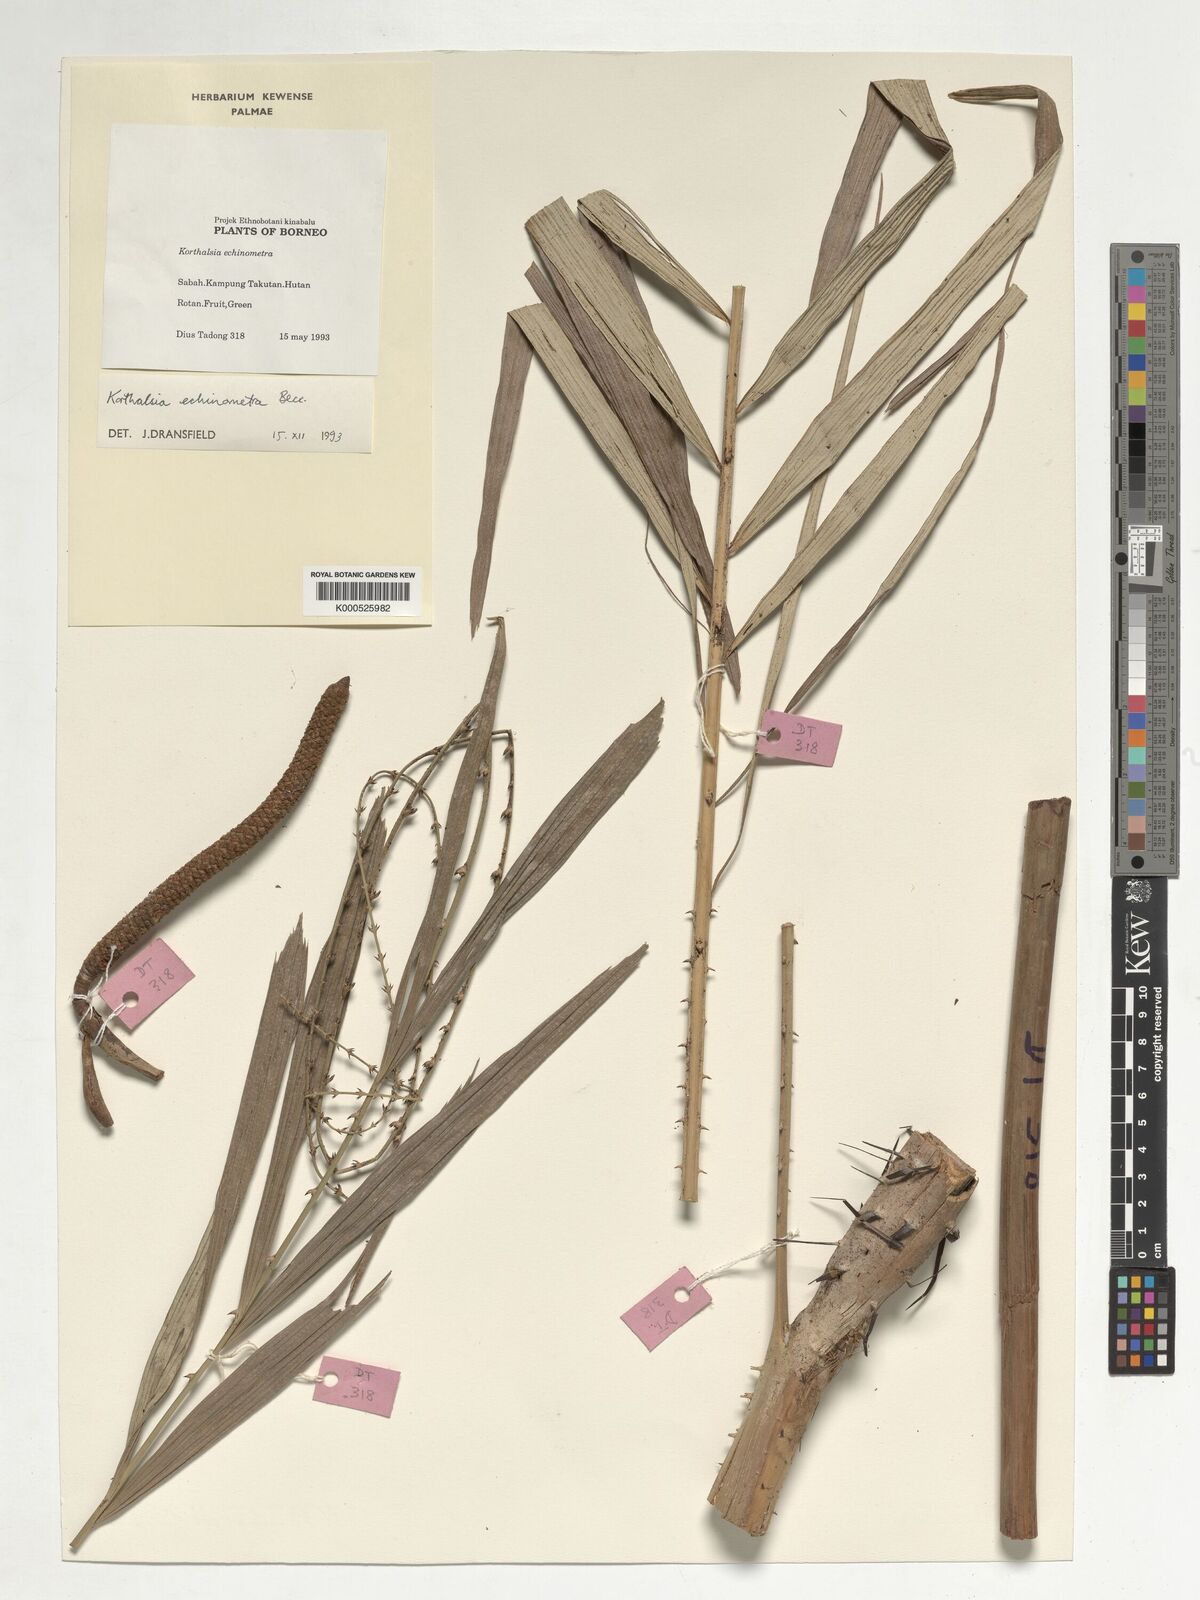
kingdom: Plantae
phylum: Tracheophyta
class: Liliopsida
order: Arecales
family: Arecaceae
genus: Korthalsia
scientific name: Korthalsia echinometra
